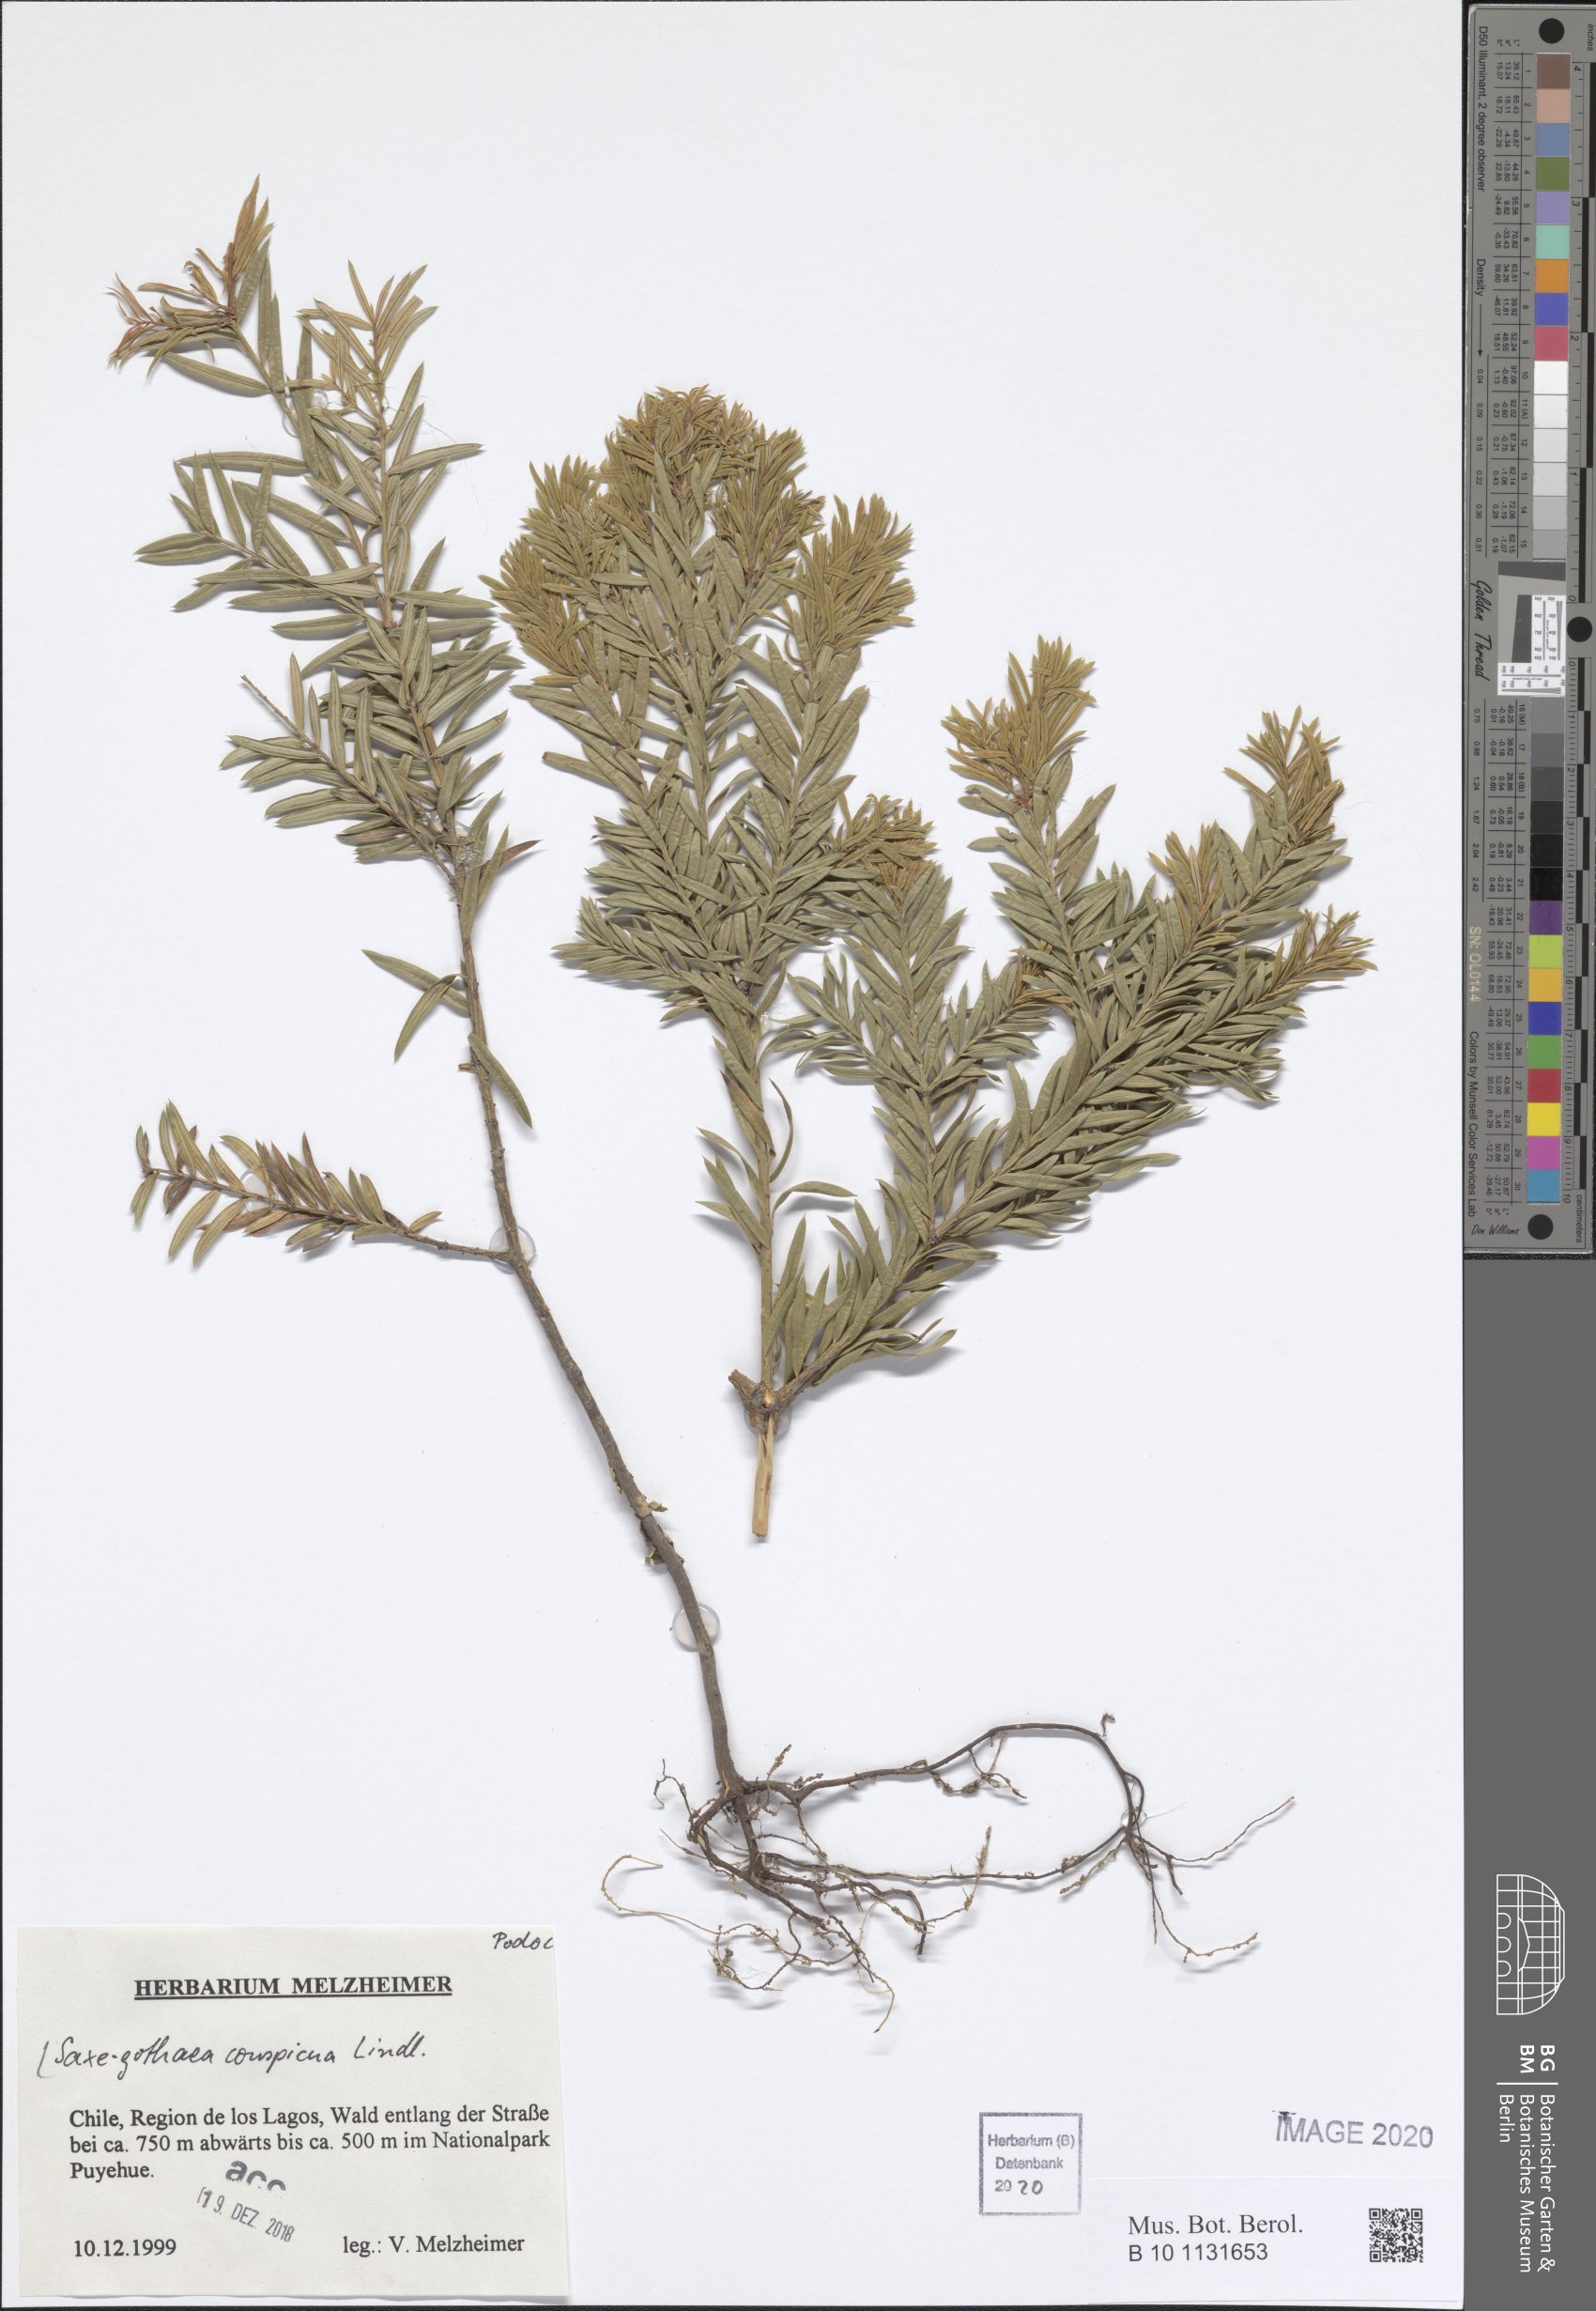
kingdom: Plantae
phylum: Tracheophyta
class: Pinopsida
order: Pinales
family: Podocarpaceae
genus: Saxegothaea
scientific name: Saxegothaea conspicua
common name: Prince albert's yew
